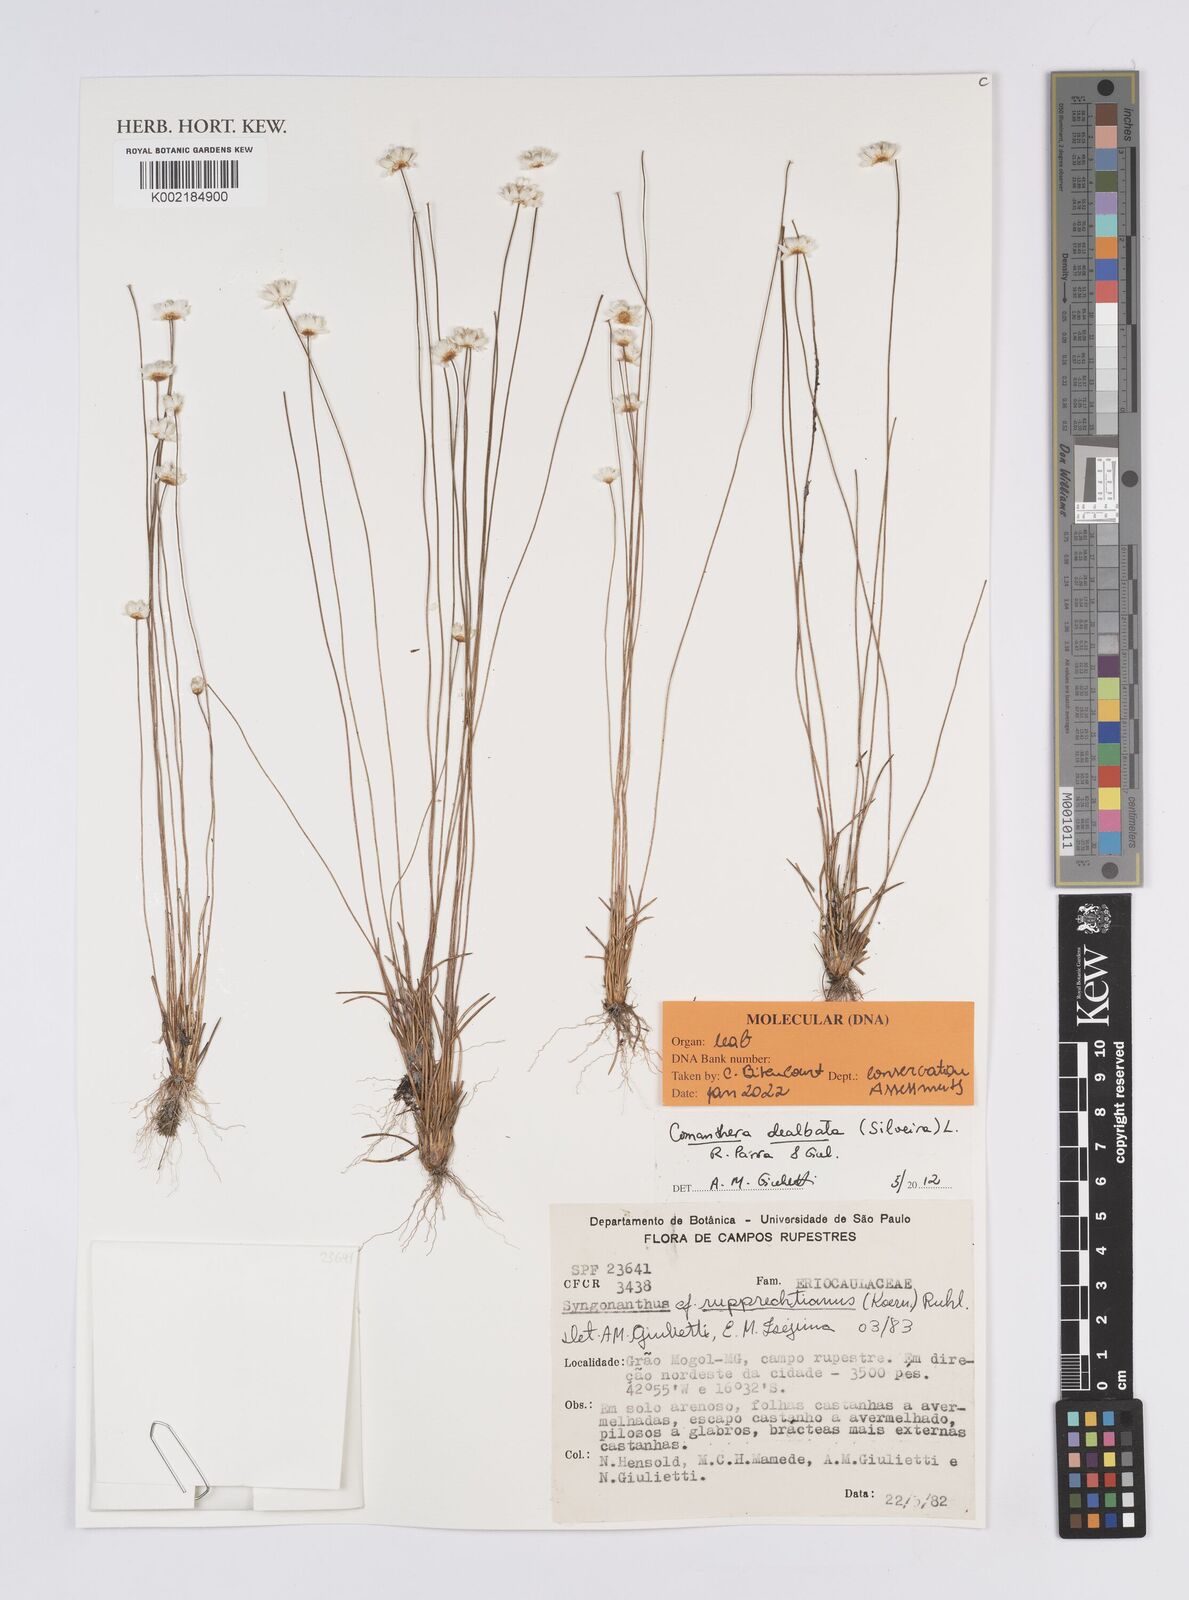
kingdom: Plantae
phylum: Tracheophyta
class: Liliopsida
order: Poales
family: Eriocaulaceae
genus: Comanthera
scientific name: Comanthera dealbata
